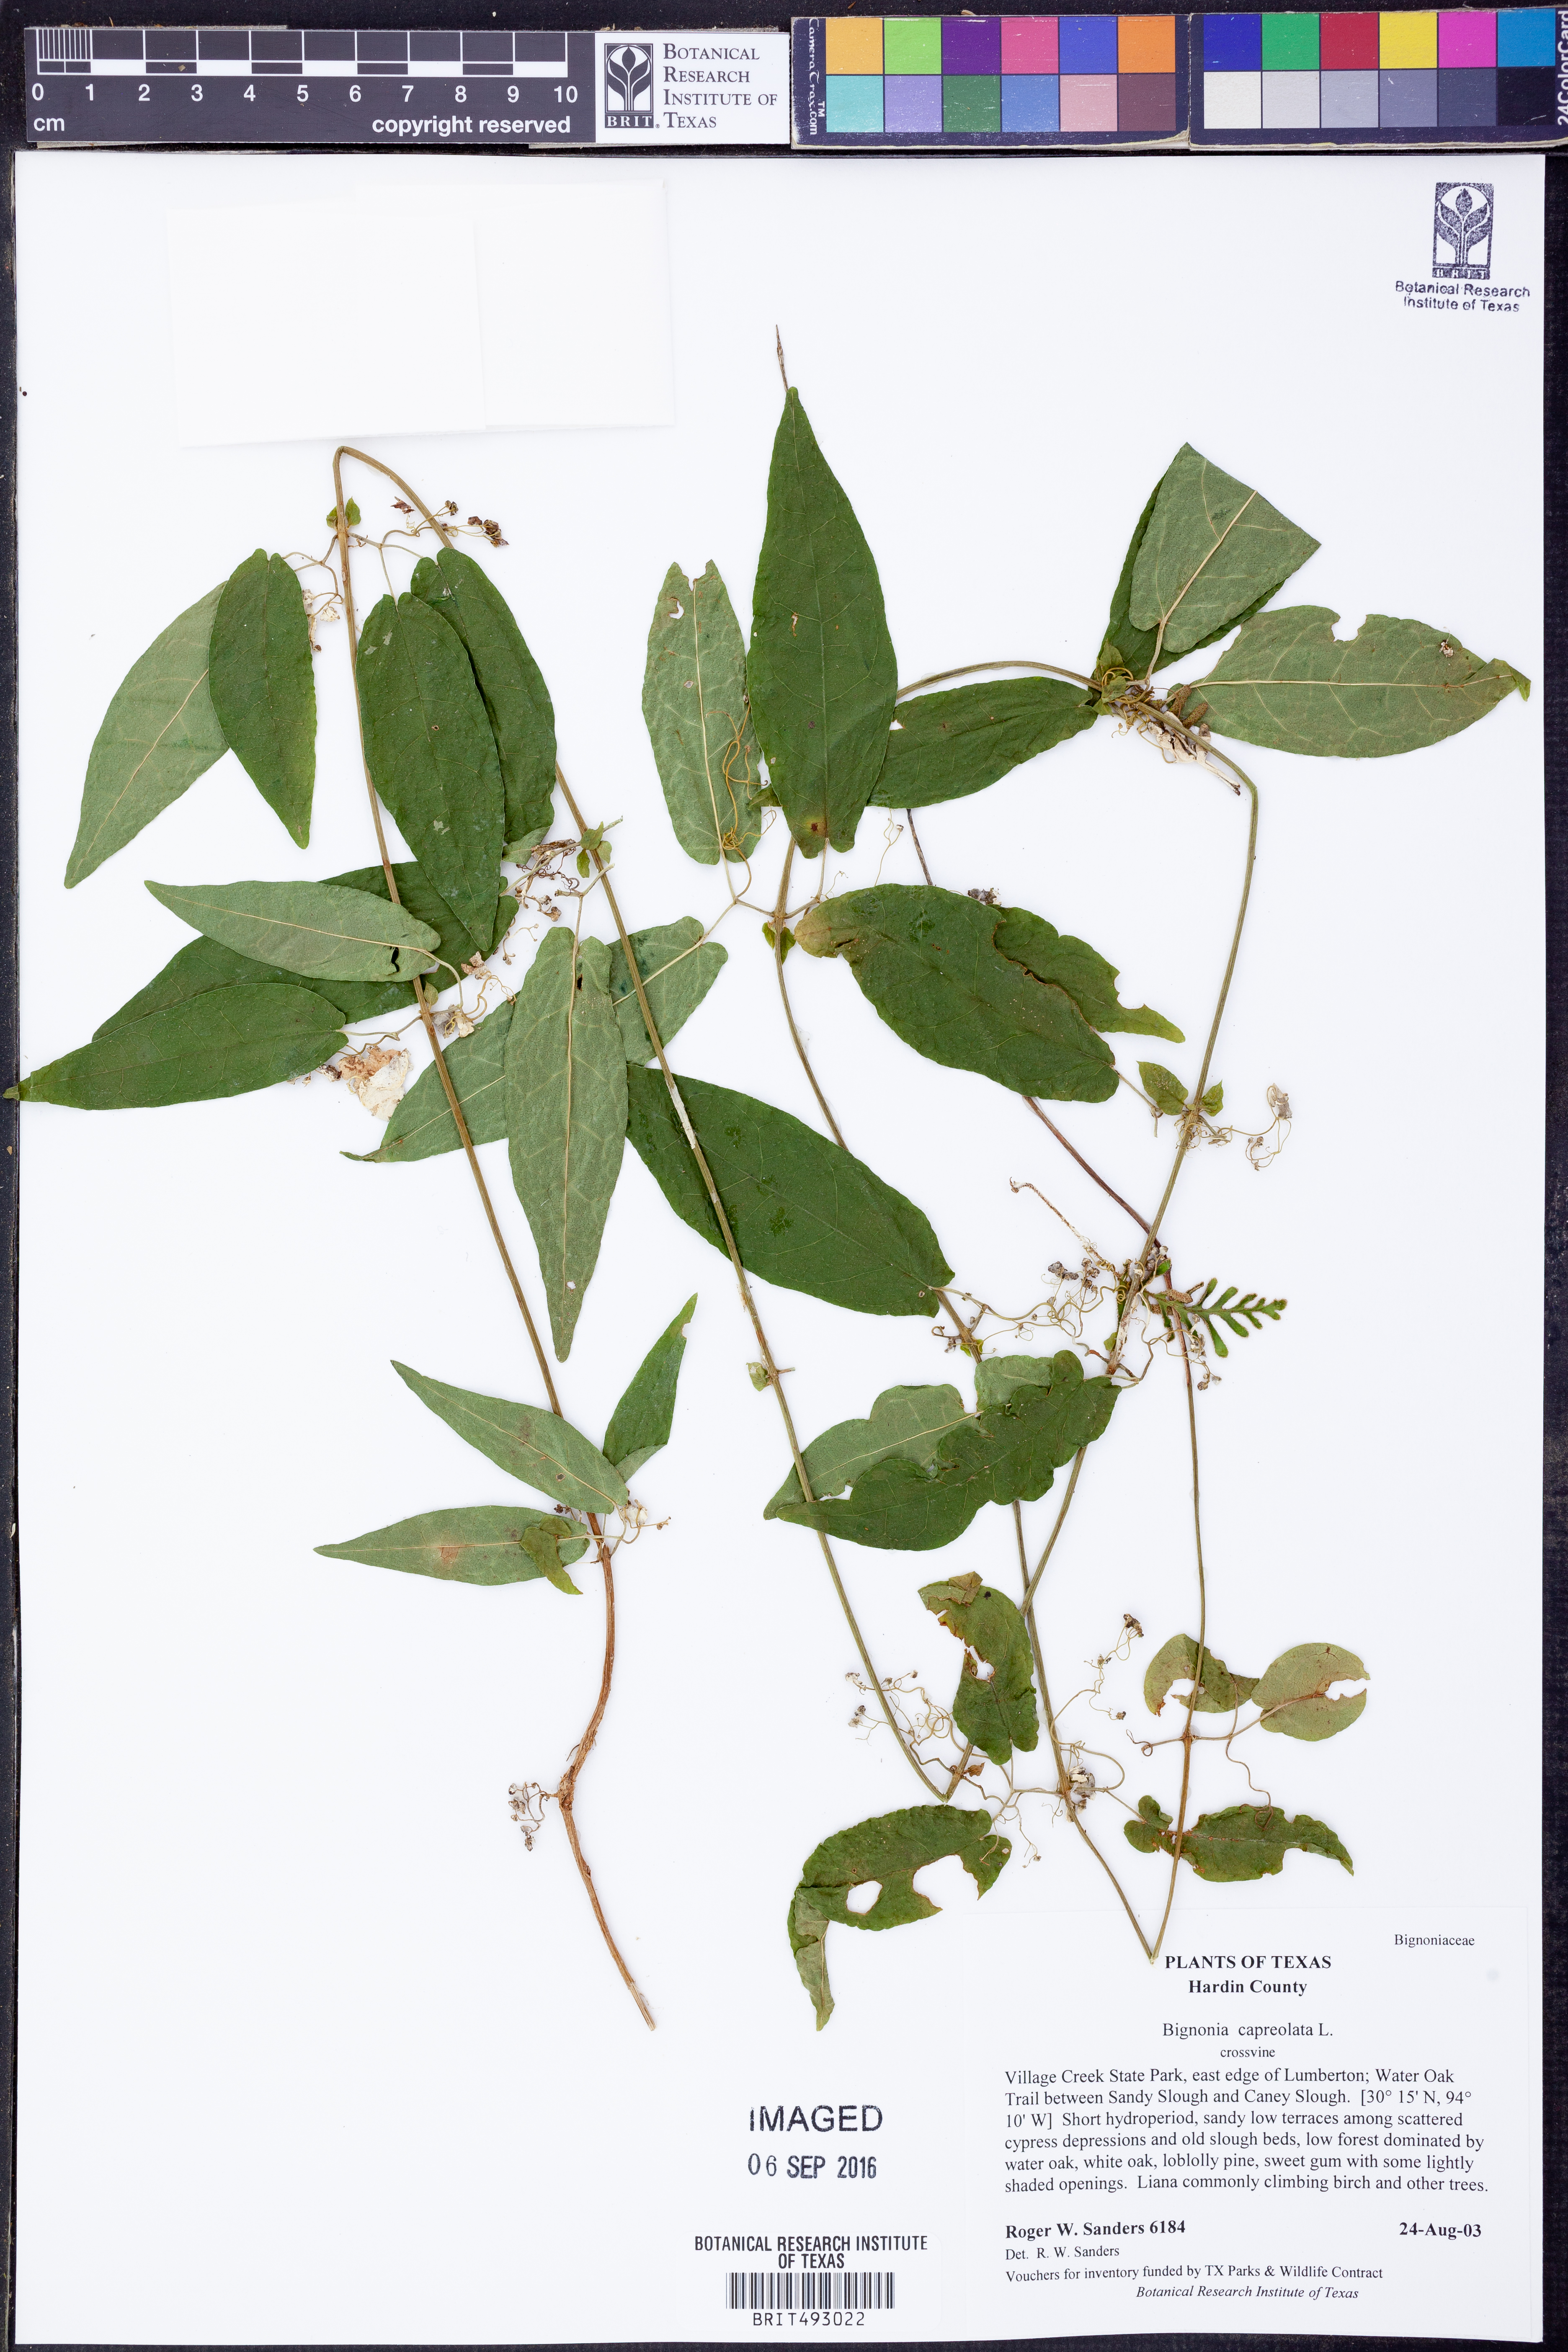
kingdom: Plantae
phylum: Tracheophyta
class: Magnoliopsida
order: Lamiales
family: Bignoniaceae
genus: Bignonia
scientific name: Bignonia capreolata
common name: Crossvine
